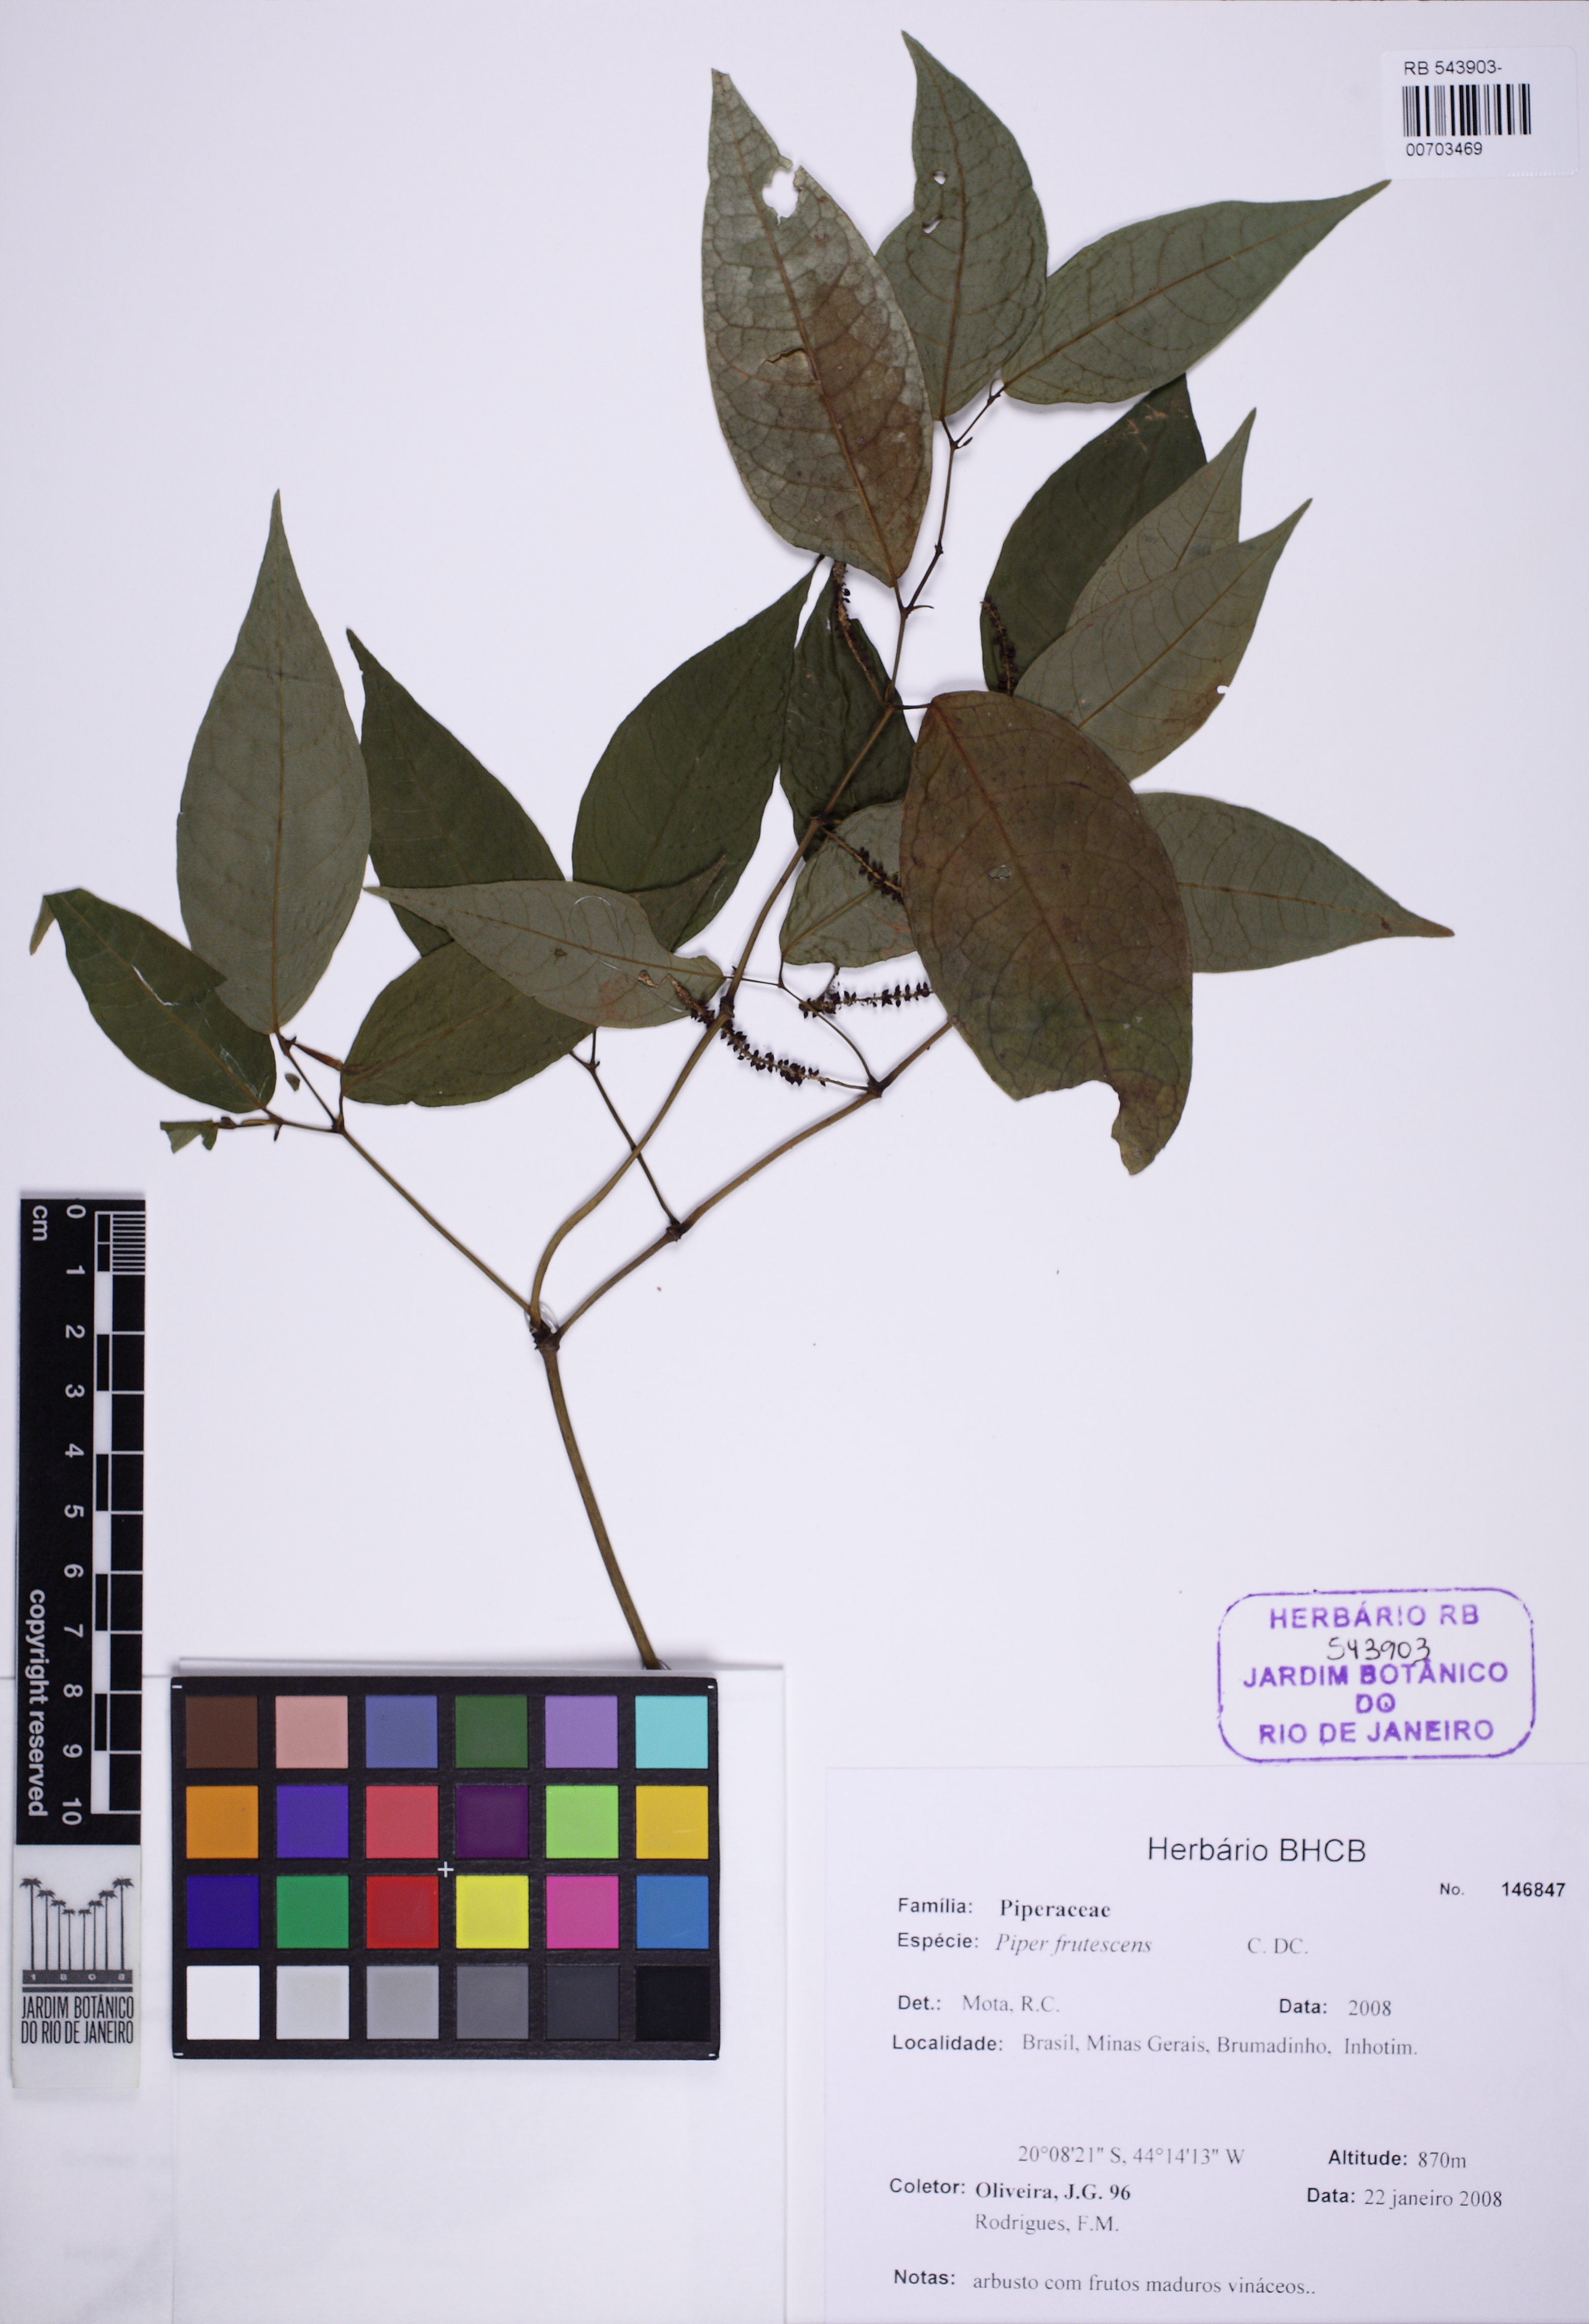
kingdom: Plantae
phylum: Tracheophyta
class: Magnoliopsida
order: Piperales
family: Piperaceae
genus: Piper
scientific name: Piper ovatum
